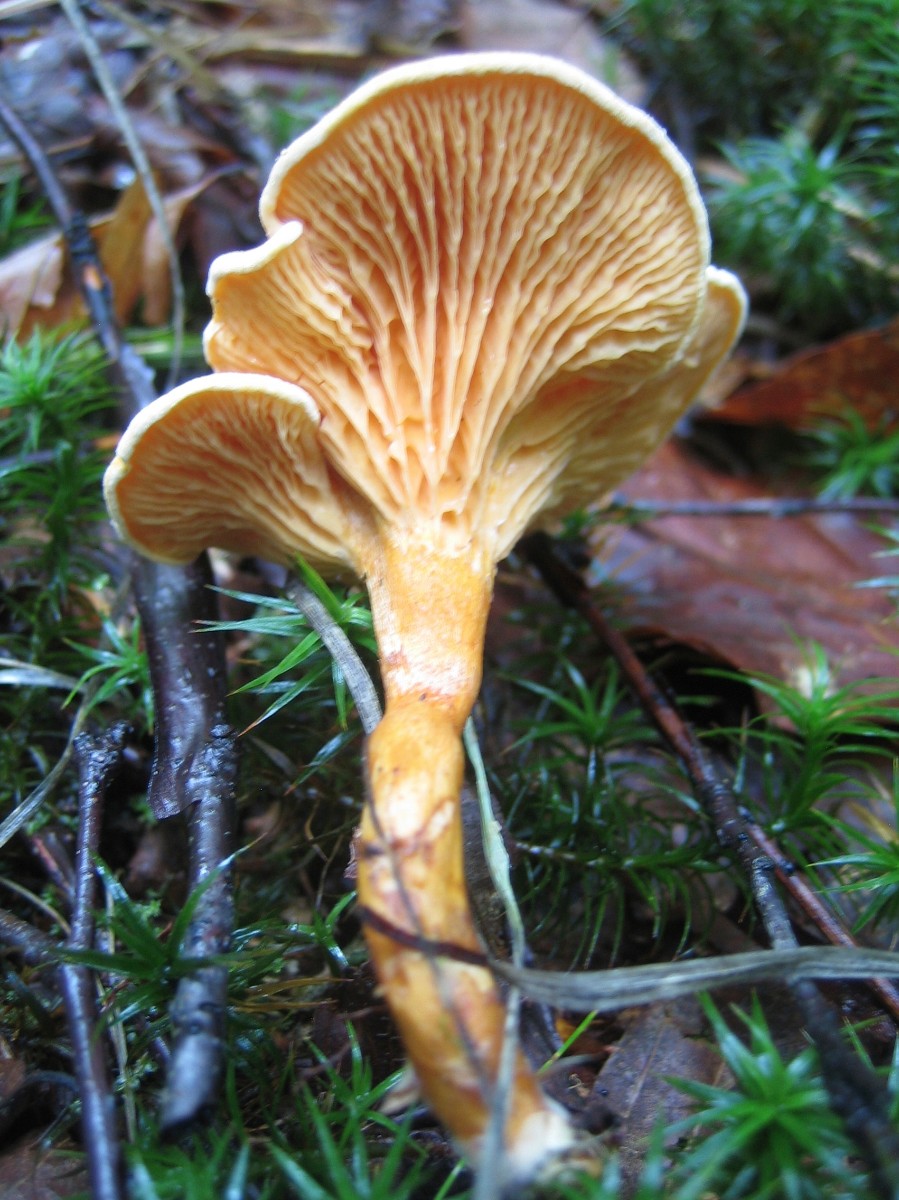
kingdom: Fungi
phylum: Basidiomycota
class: Agaricomycetes
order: Boletales
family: Hygrophoropsidaceae
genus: Hygrophoropsis
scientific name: Hygrophoropsis aurantiaca
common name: almindelig orangekantarel
